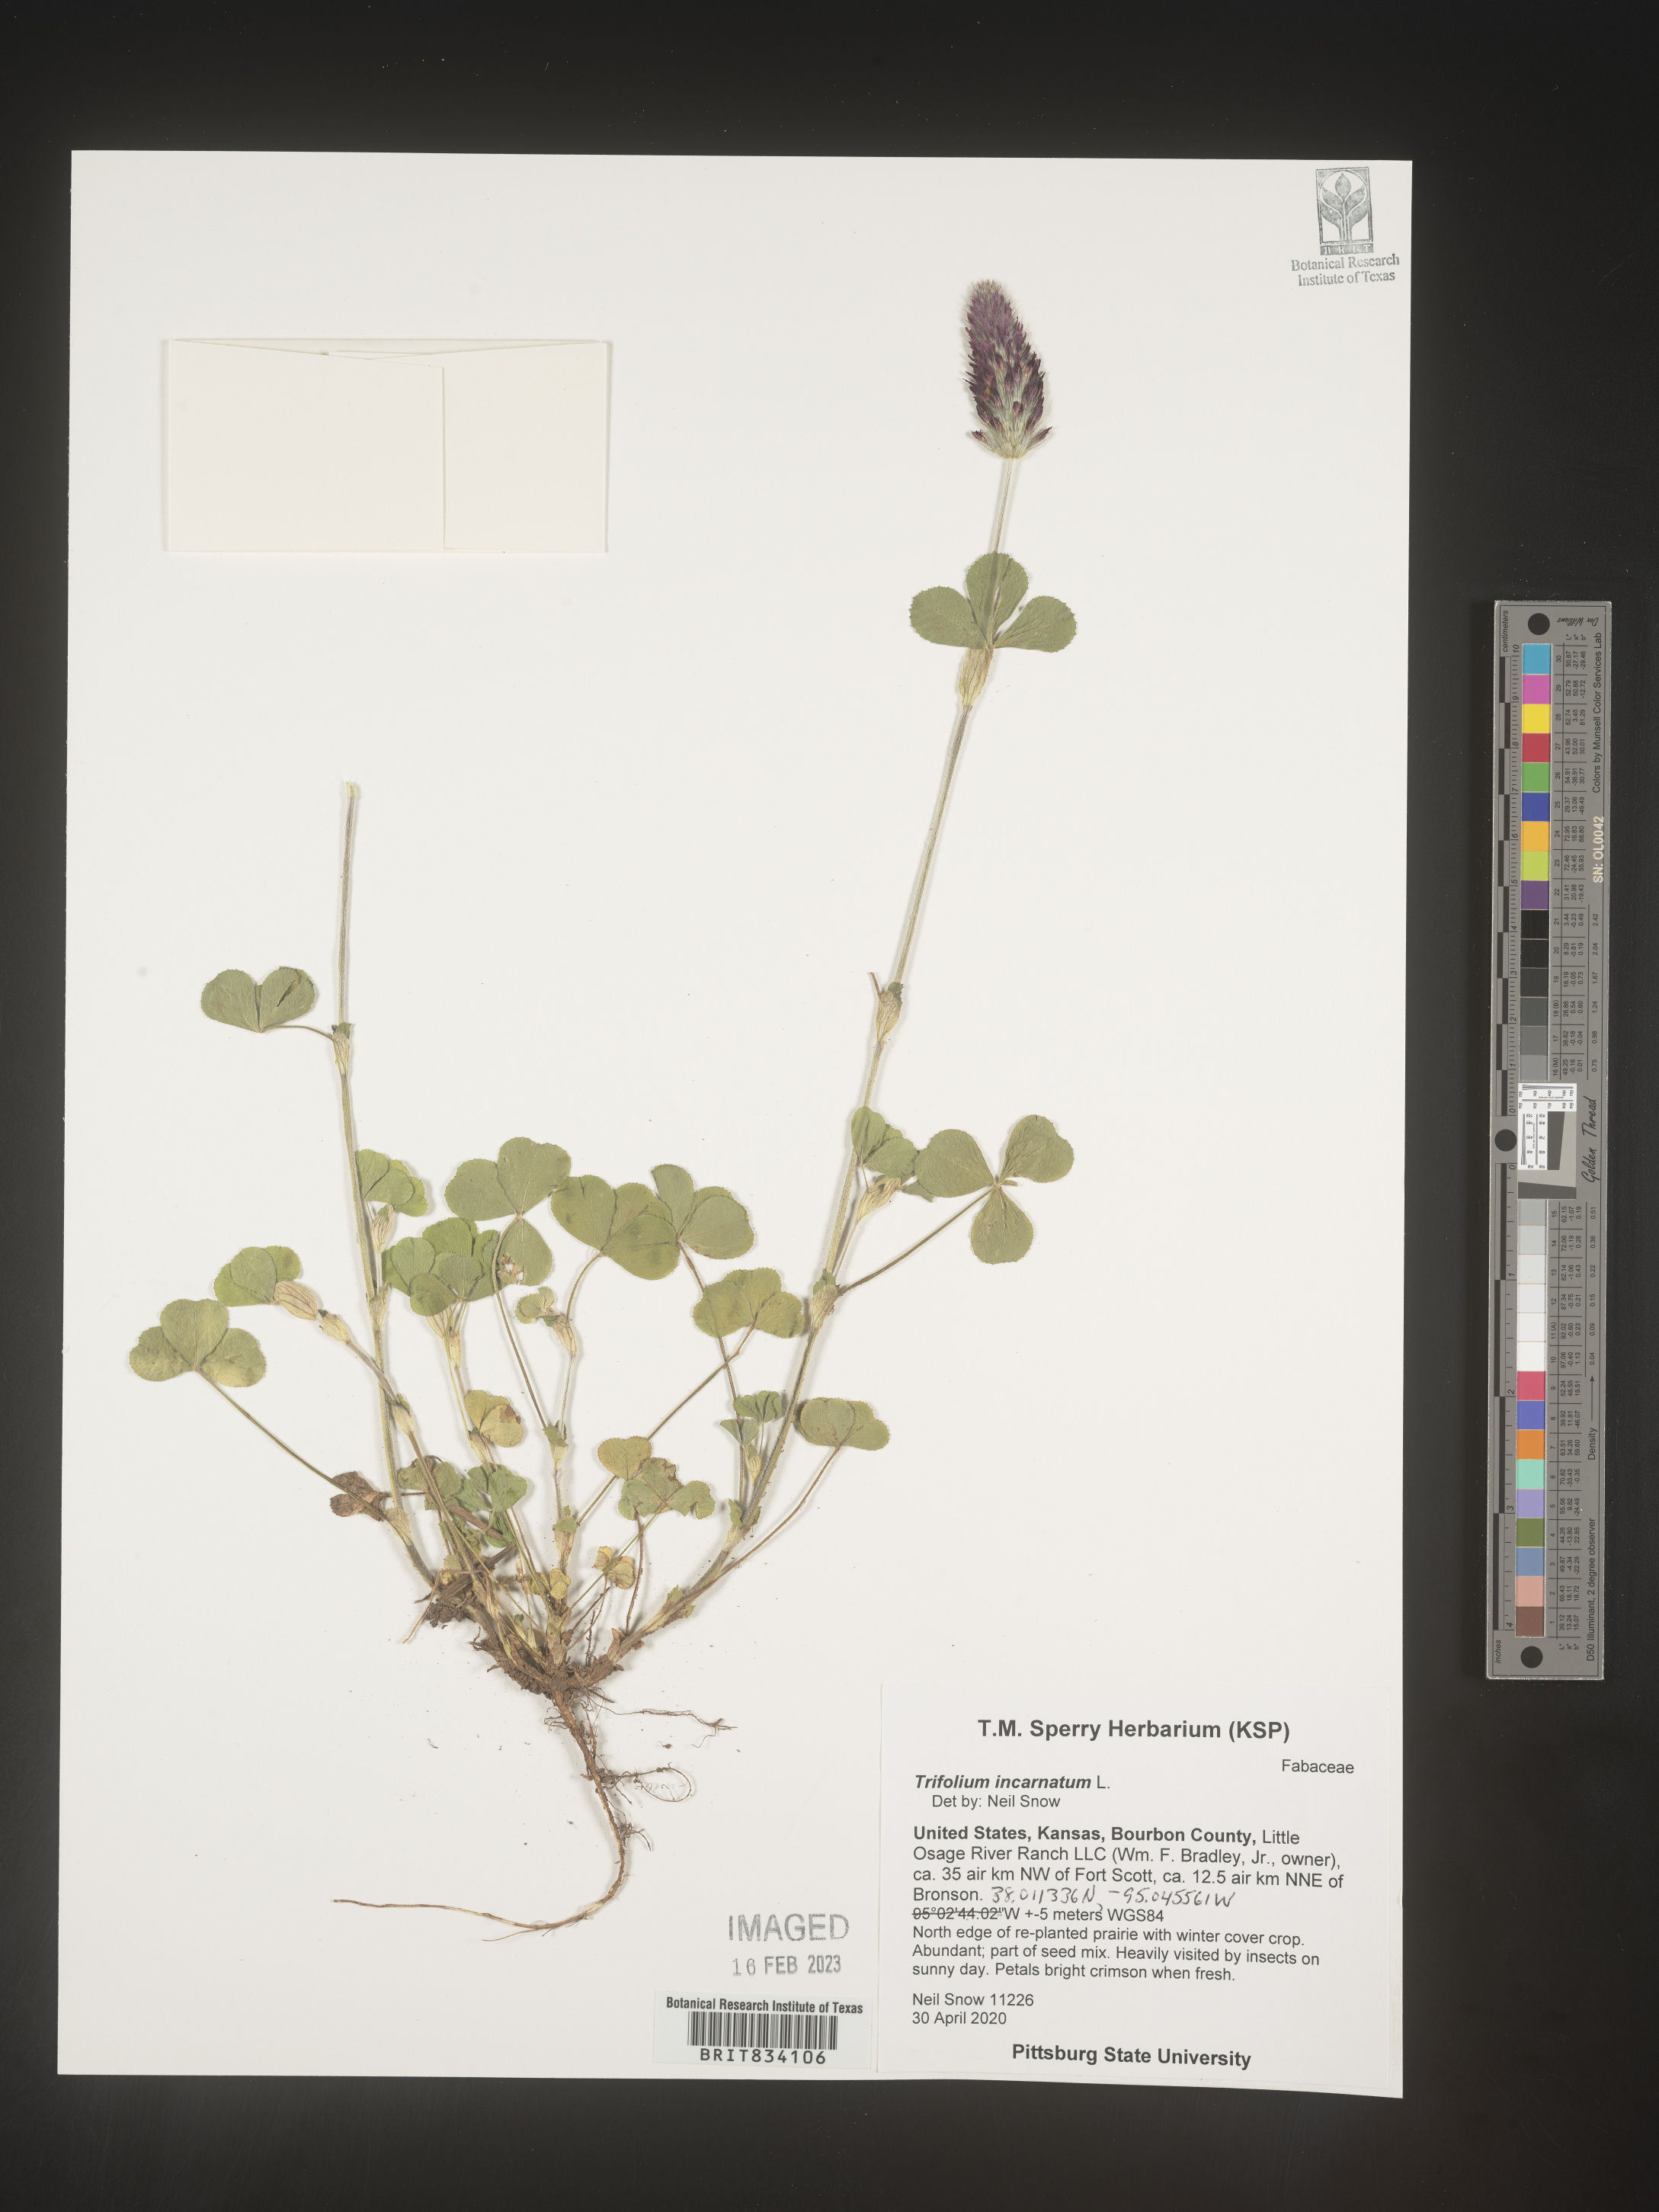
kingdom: Plantae
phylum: Tracheophyta
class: Magnoliopsida
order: Fabales
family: Fabaceae
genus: Trifolium
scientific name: Trifolium incarnatum
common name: Crimson clover
